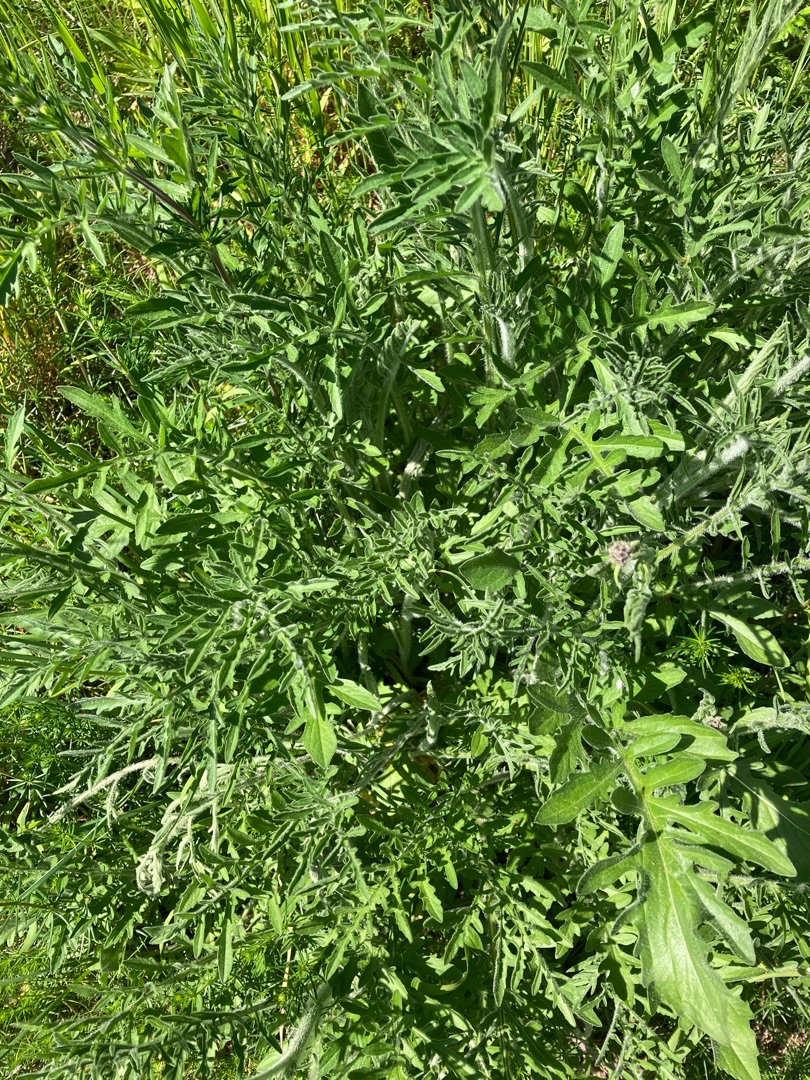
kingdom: Plantae
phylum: Tracheophyta
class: Magnoliopsida
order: Asterales
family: Asteraceae
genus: Centaurea
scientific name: Centaurea scabiosa
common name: Stor knopurt
